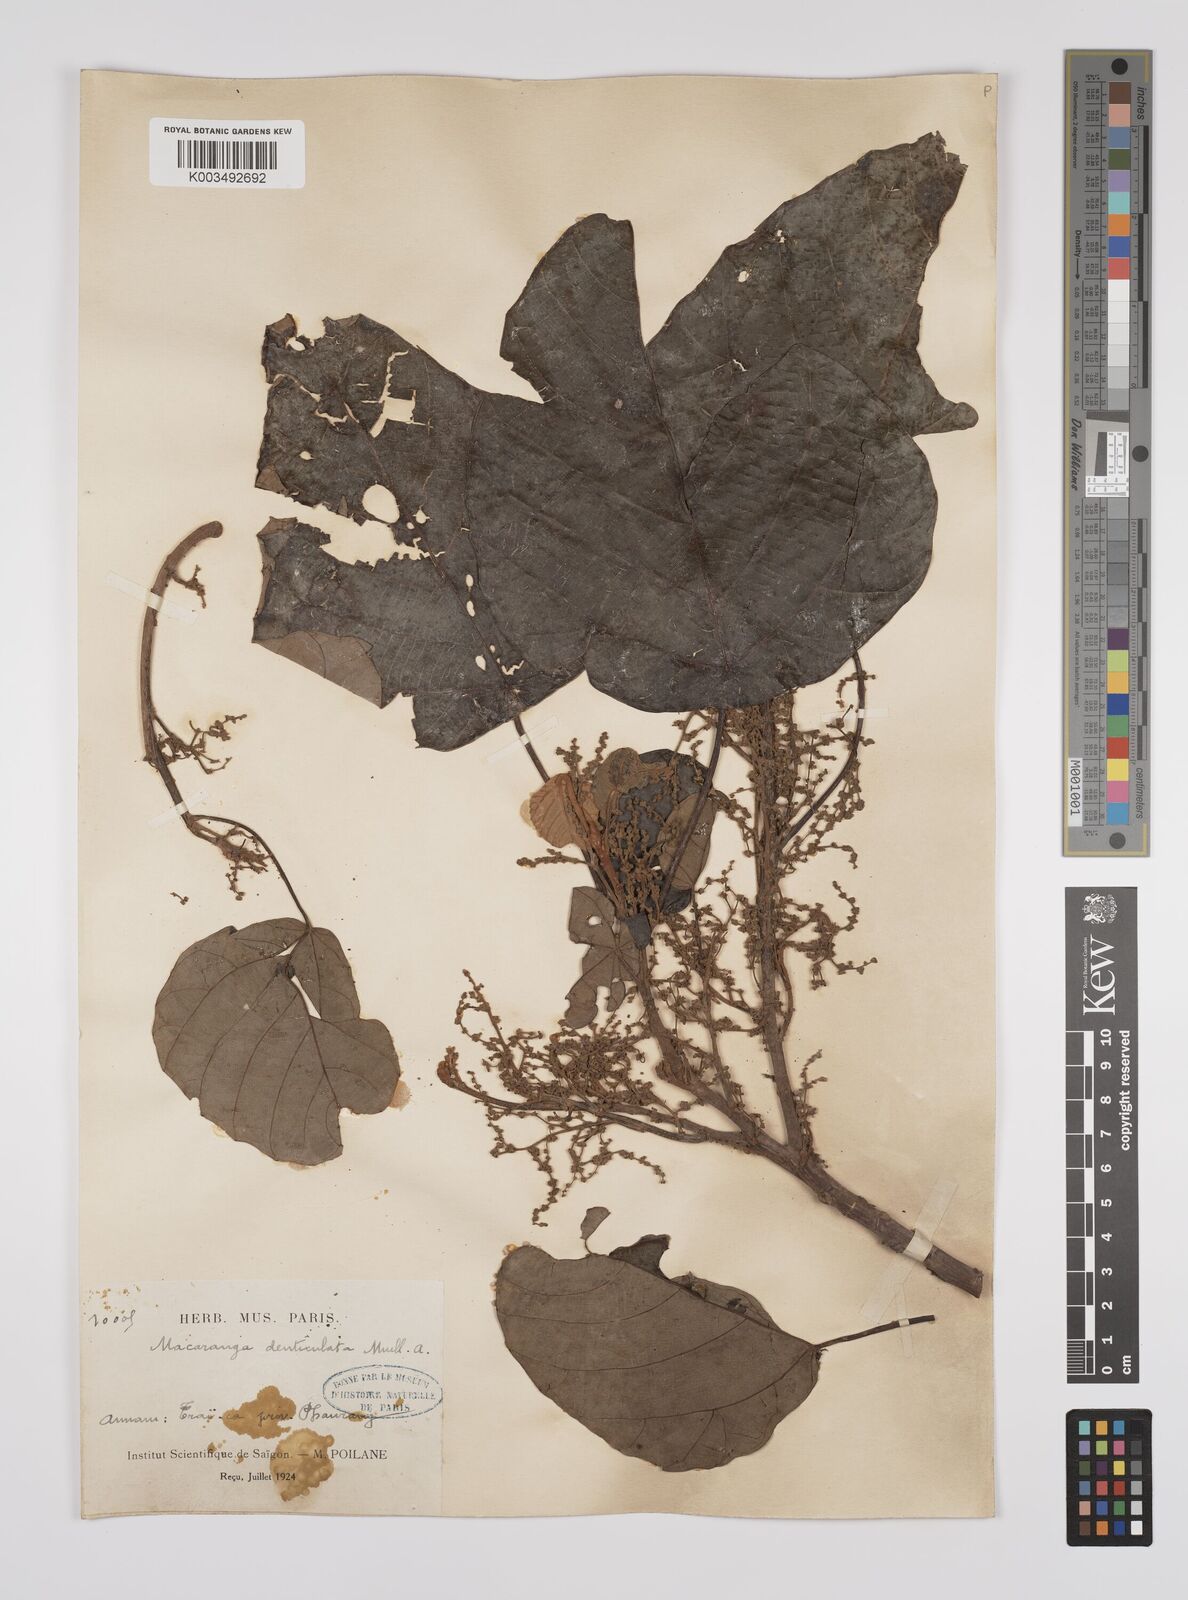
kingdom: Plantae
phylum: Tracheophyta
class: Magnoliopsida
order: Malpighiales
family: Euphorbiaceae
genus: Macaranga
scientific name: Macaranga denticulata
